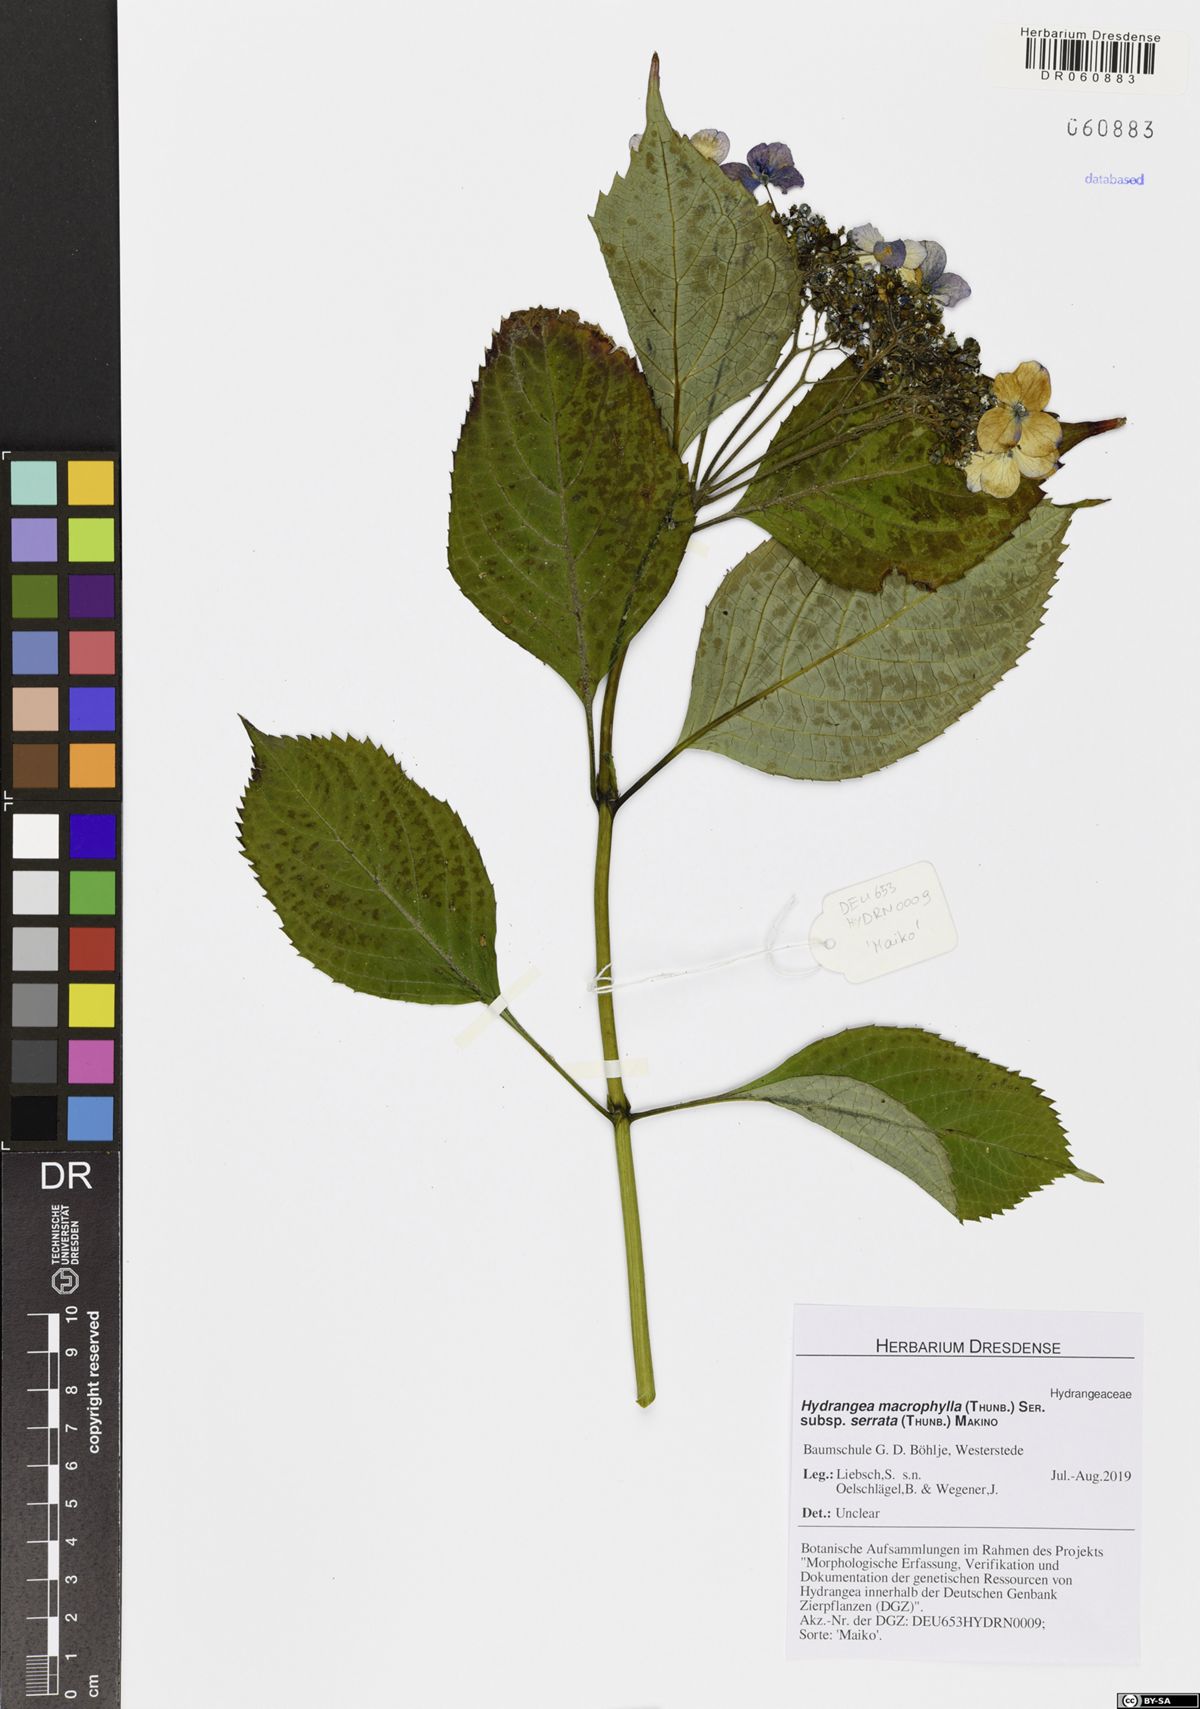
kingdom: Plantae
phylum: Tracheophyta
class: Magnoliopsida
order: Cornales
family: Hydrangeaceae
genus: Hydrangea
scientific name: Hydrangea serrata
